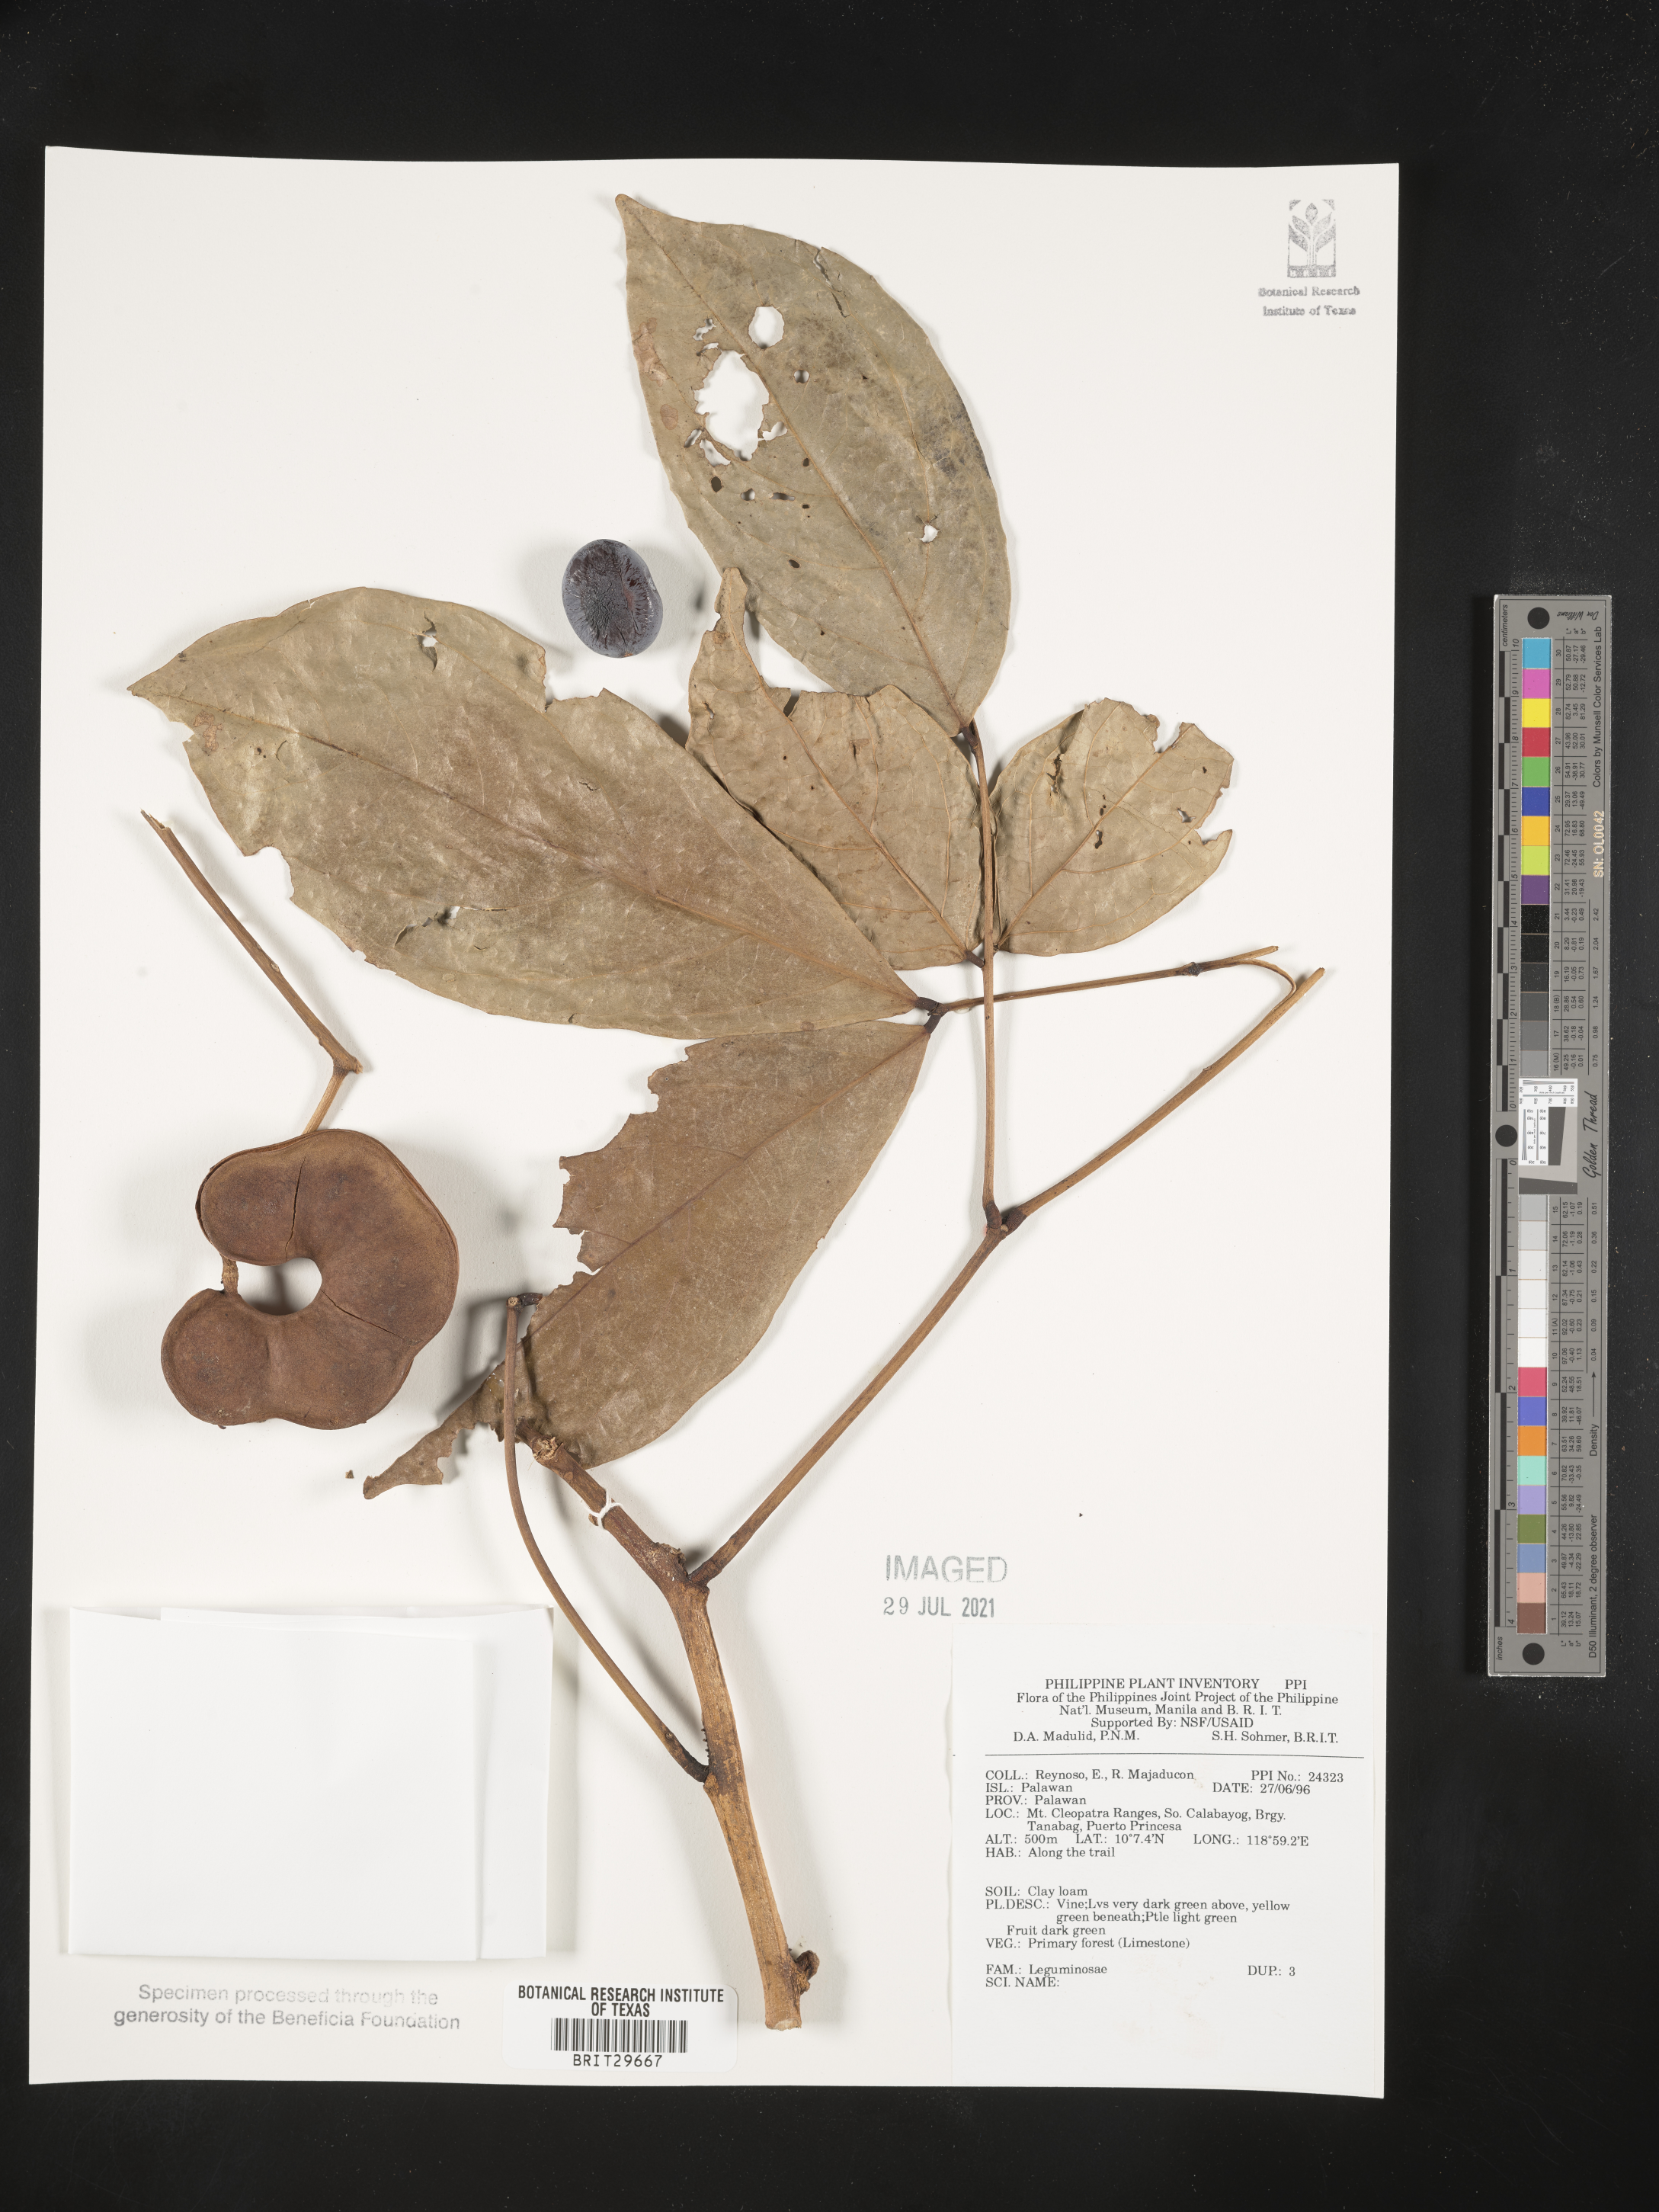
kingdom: Plantae
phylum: Tracheophyta
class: Magnoliopsida
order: Fabales
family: Fabaceae
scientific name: Fabaceae
